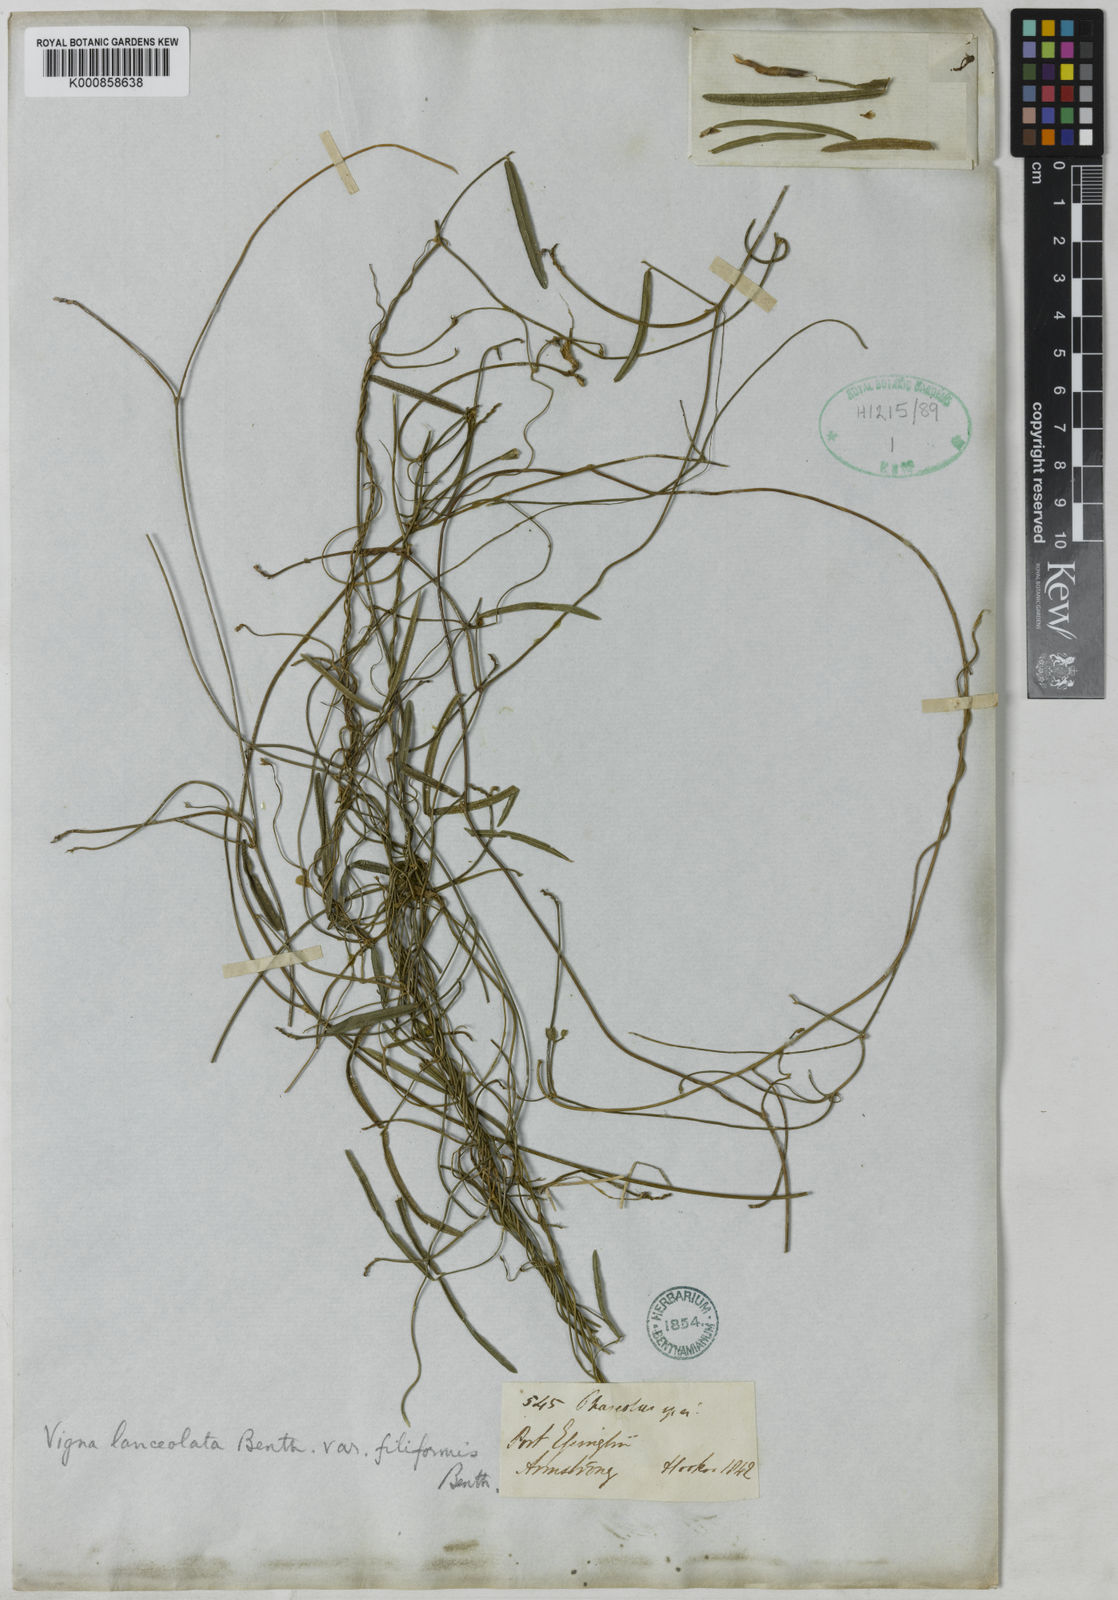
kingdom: Plantae
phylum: Tracheophyta
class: Magnoliopsida
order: Fabales
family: Fabaceae
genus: Vigna
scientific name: Vigna lanceolata
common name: Maloga-bean
